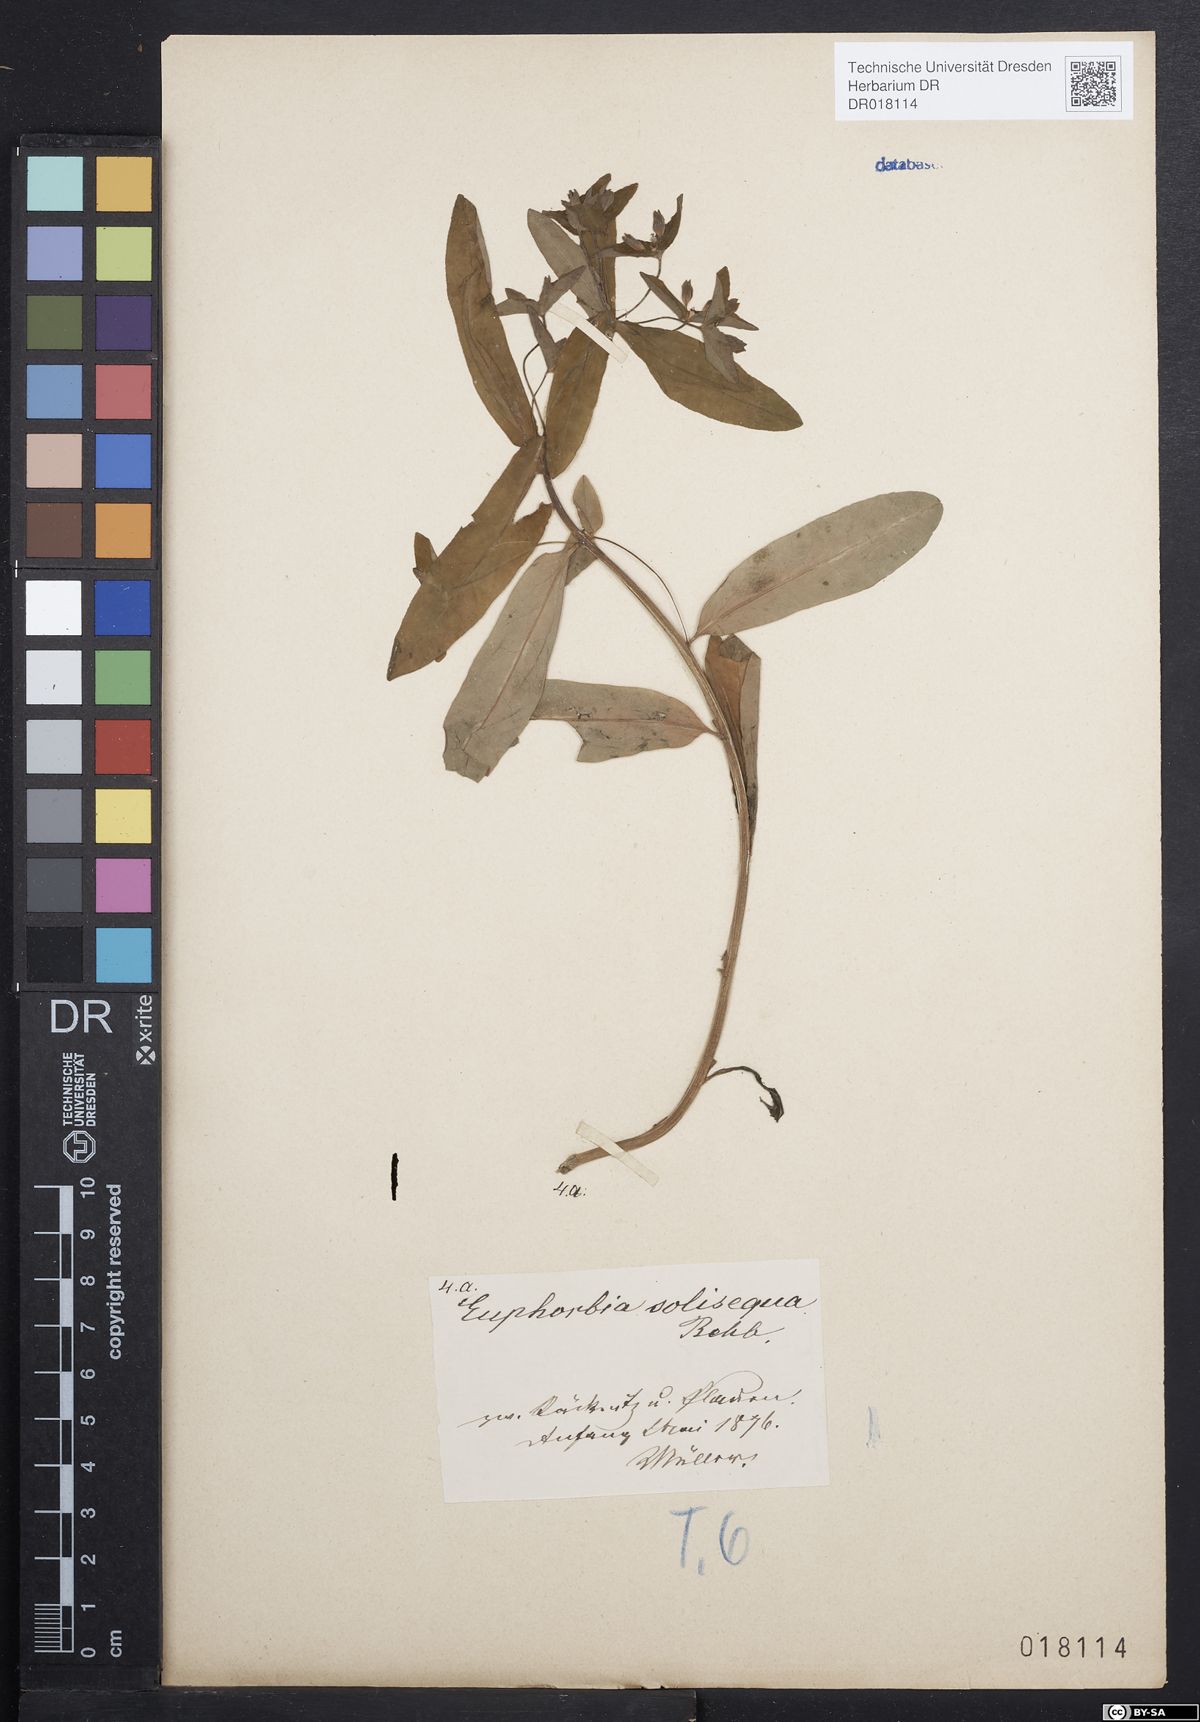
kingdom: Plantae
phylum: Tracheophyta
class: Magnoliopsida
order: Malpighiales
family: Euphorbiaceae
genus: Euphorbia
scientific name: Euphorbia dulcis
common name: Sweet spurge
